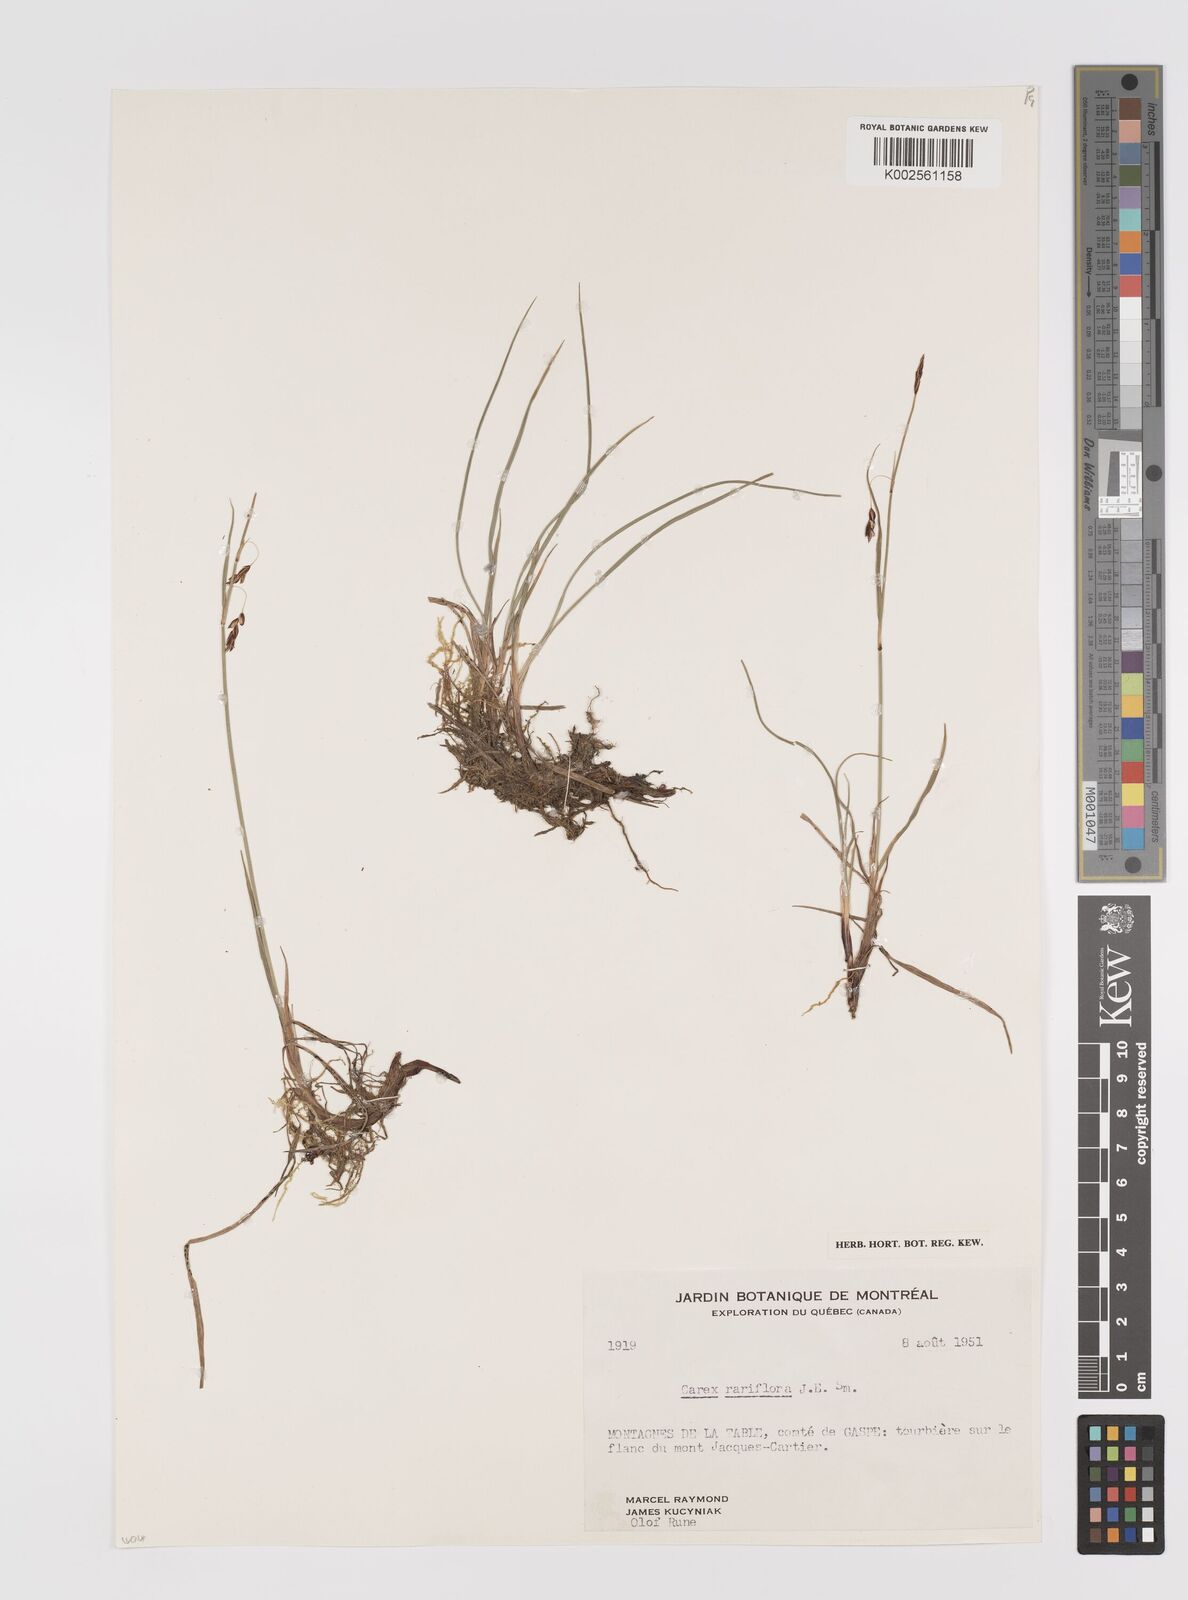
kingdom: Plantae
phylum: Tracheophyta
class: Liliopsida
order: Poales
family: Cyperaceae
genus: Carex
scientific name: Carex rariflora
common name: Loose-flowered alpine sedge
